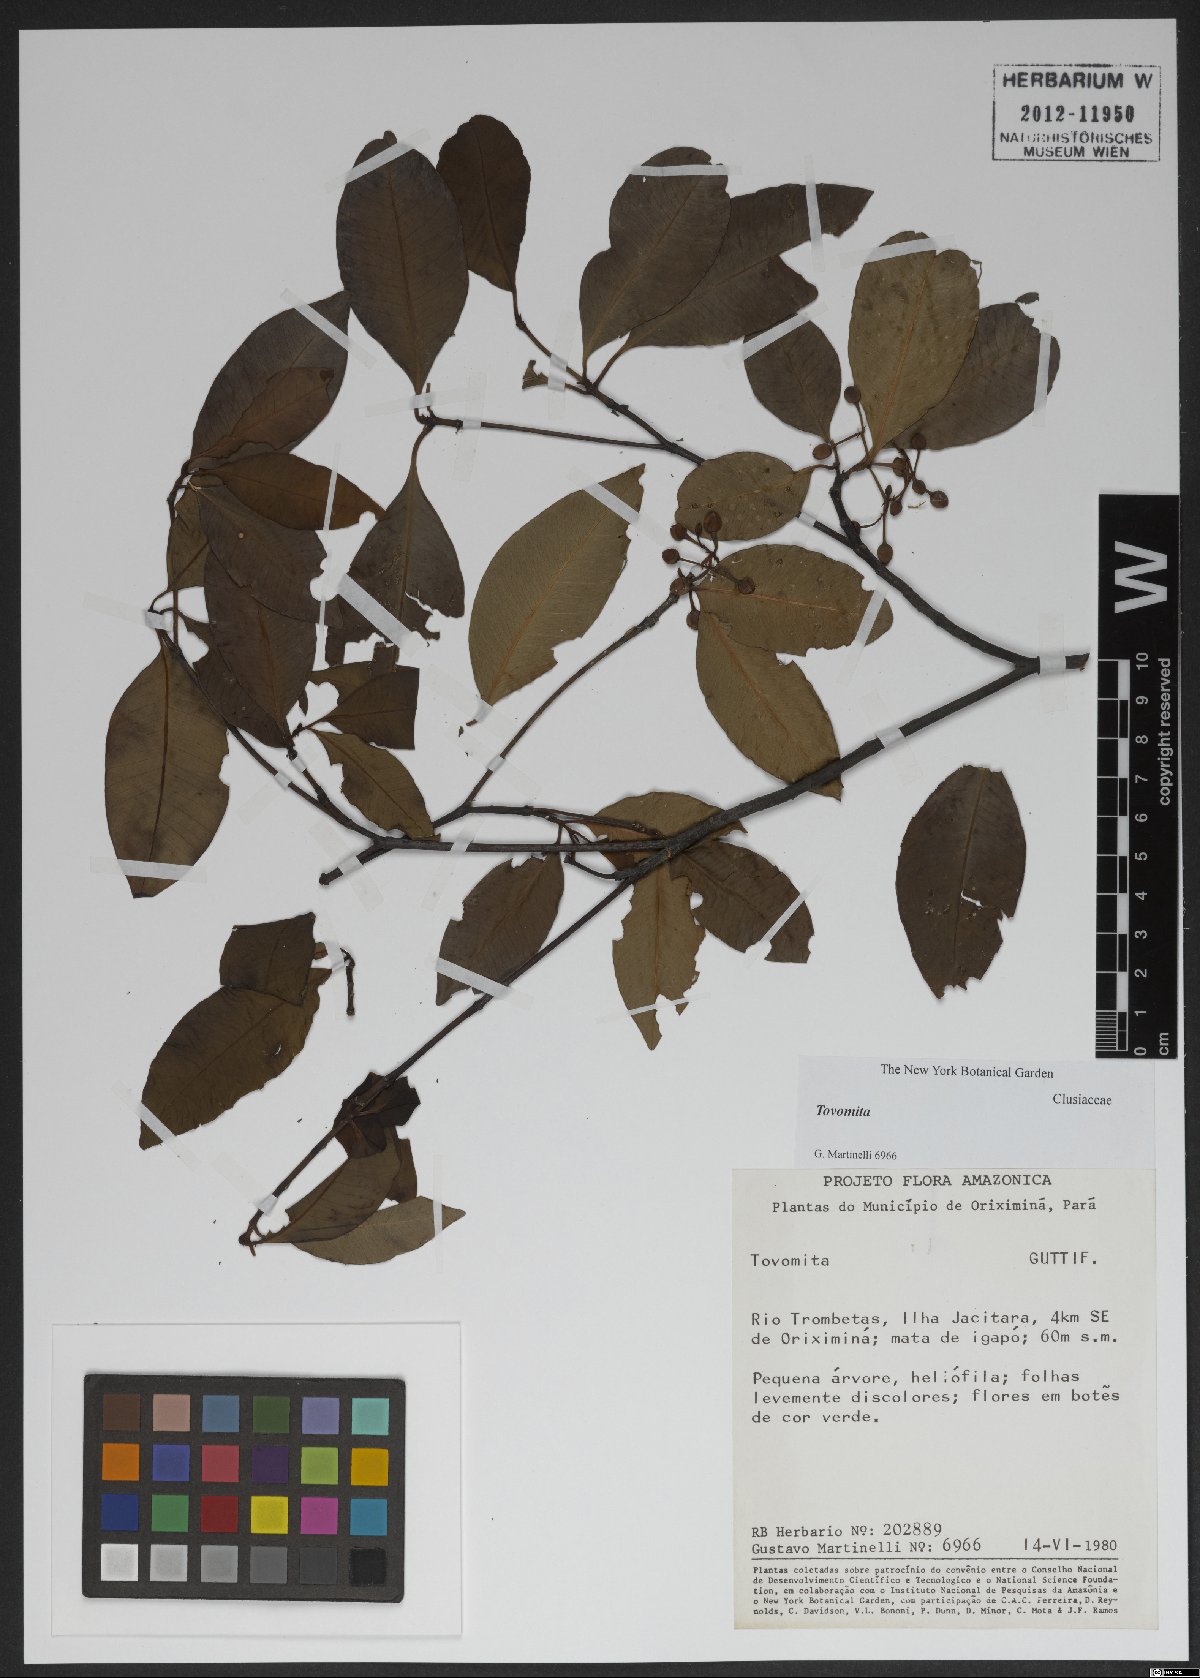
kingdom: Plantae
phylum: Tracheophyta
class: Magnoliopsida
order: Malpighiales
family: Clusiaceae
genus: Tovomita
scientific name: Tovomita
